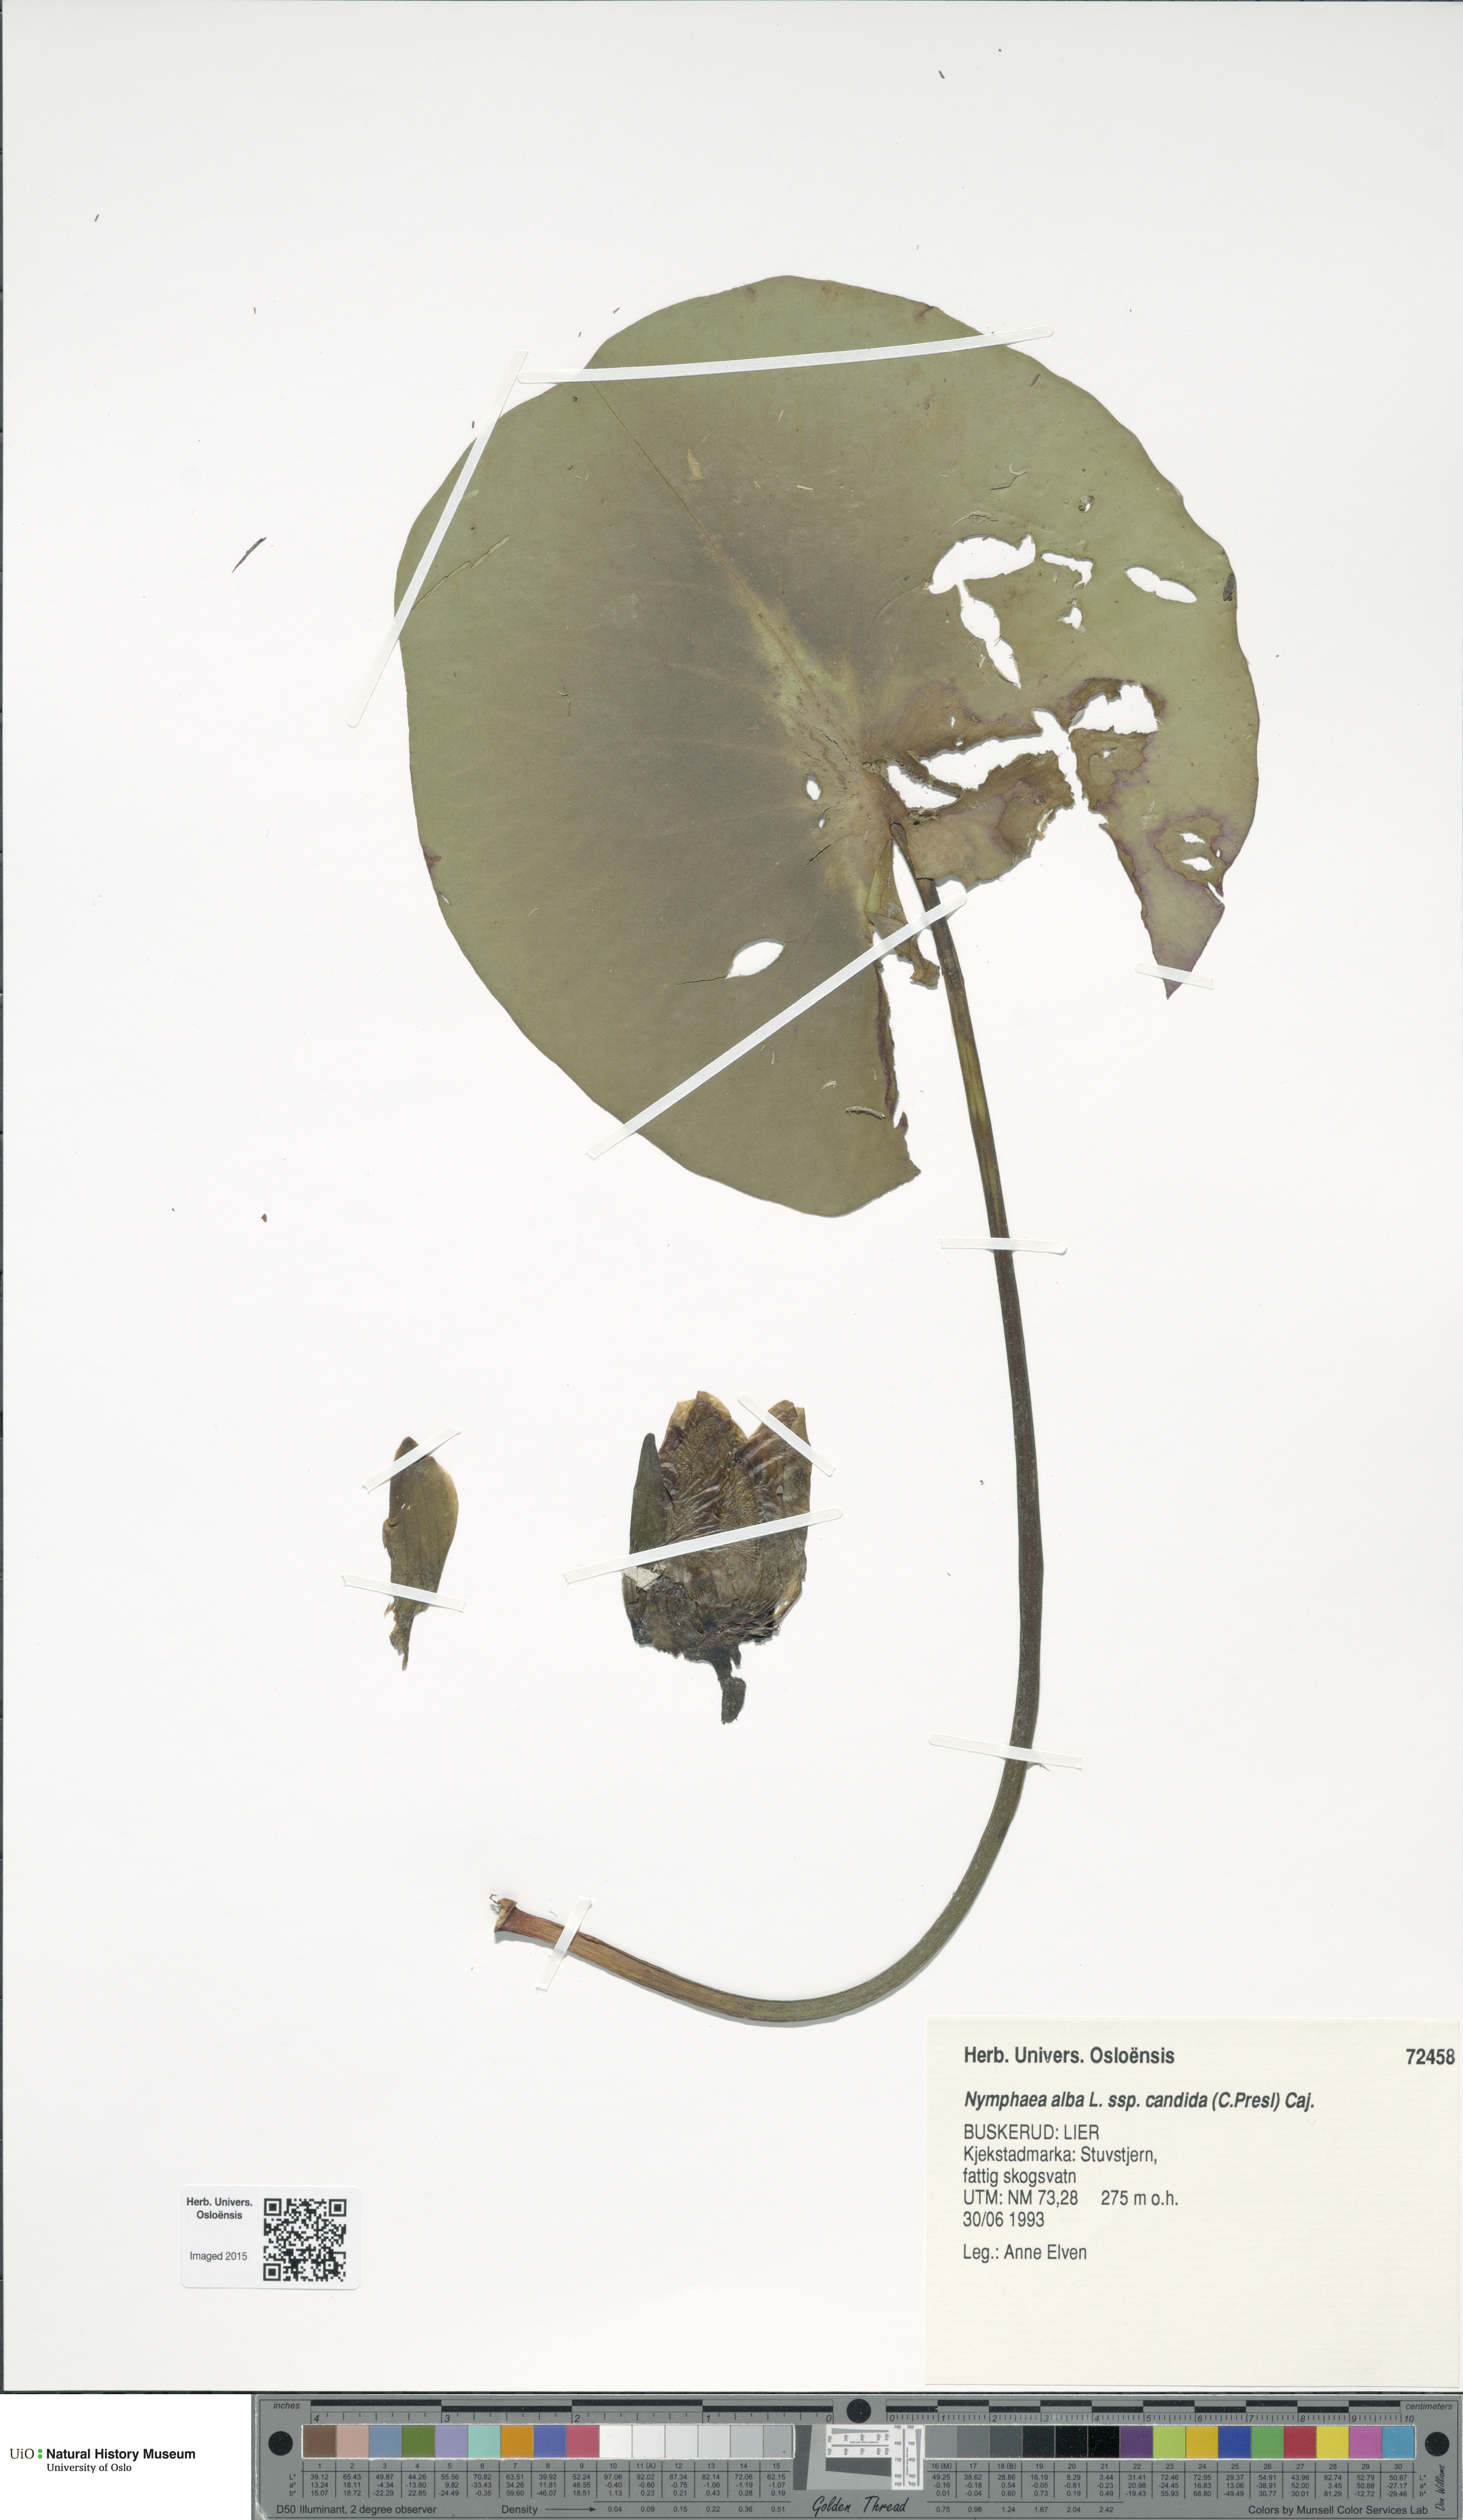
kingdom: Plantae
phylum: Tracheophyta
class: Magnoliopsida
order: Nymphaeales
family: Nymphaeaceae
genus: Nymphaea
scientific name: Nymphaea candida
